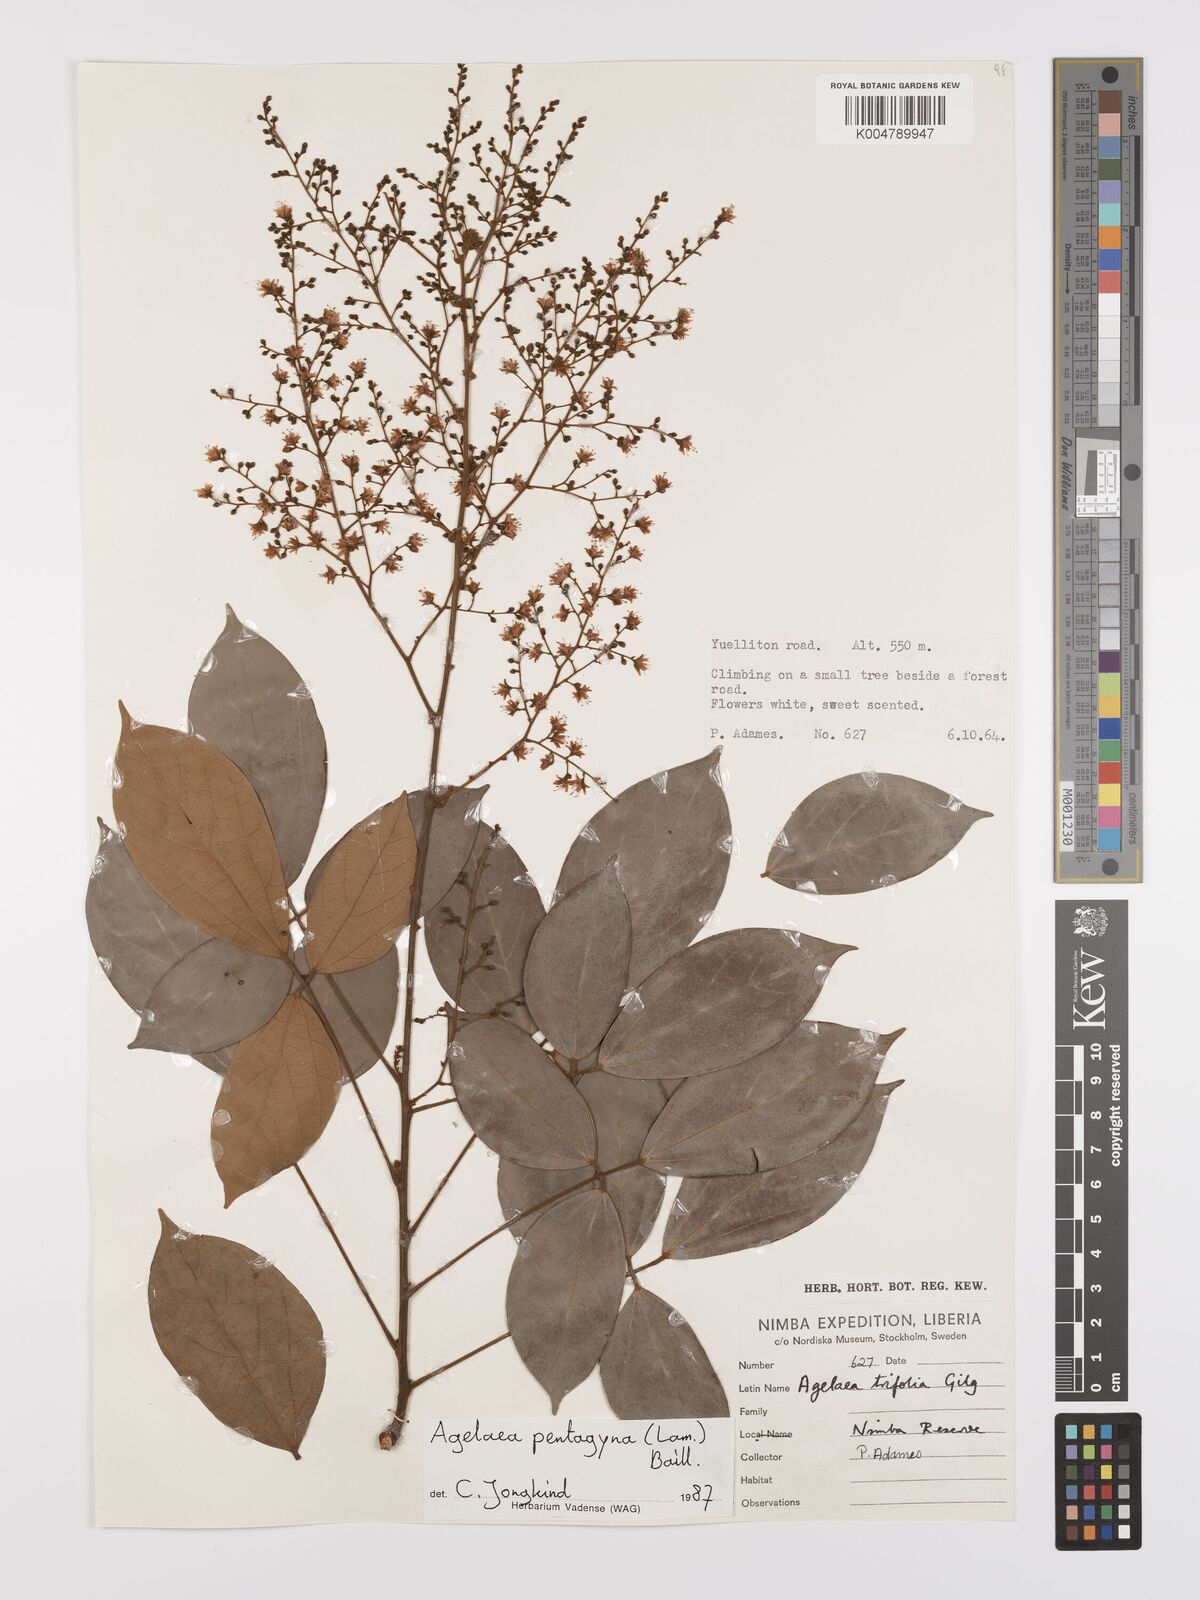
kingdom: Plantae
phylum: Tracheophyta
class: Magnoliopsida
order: Oxalidales
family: Connaraceae
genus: Agelaea
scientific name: Agelaea pentagyna
